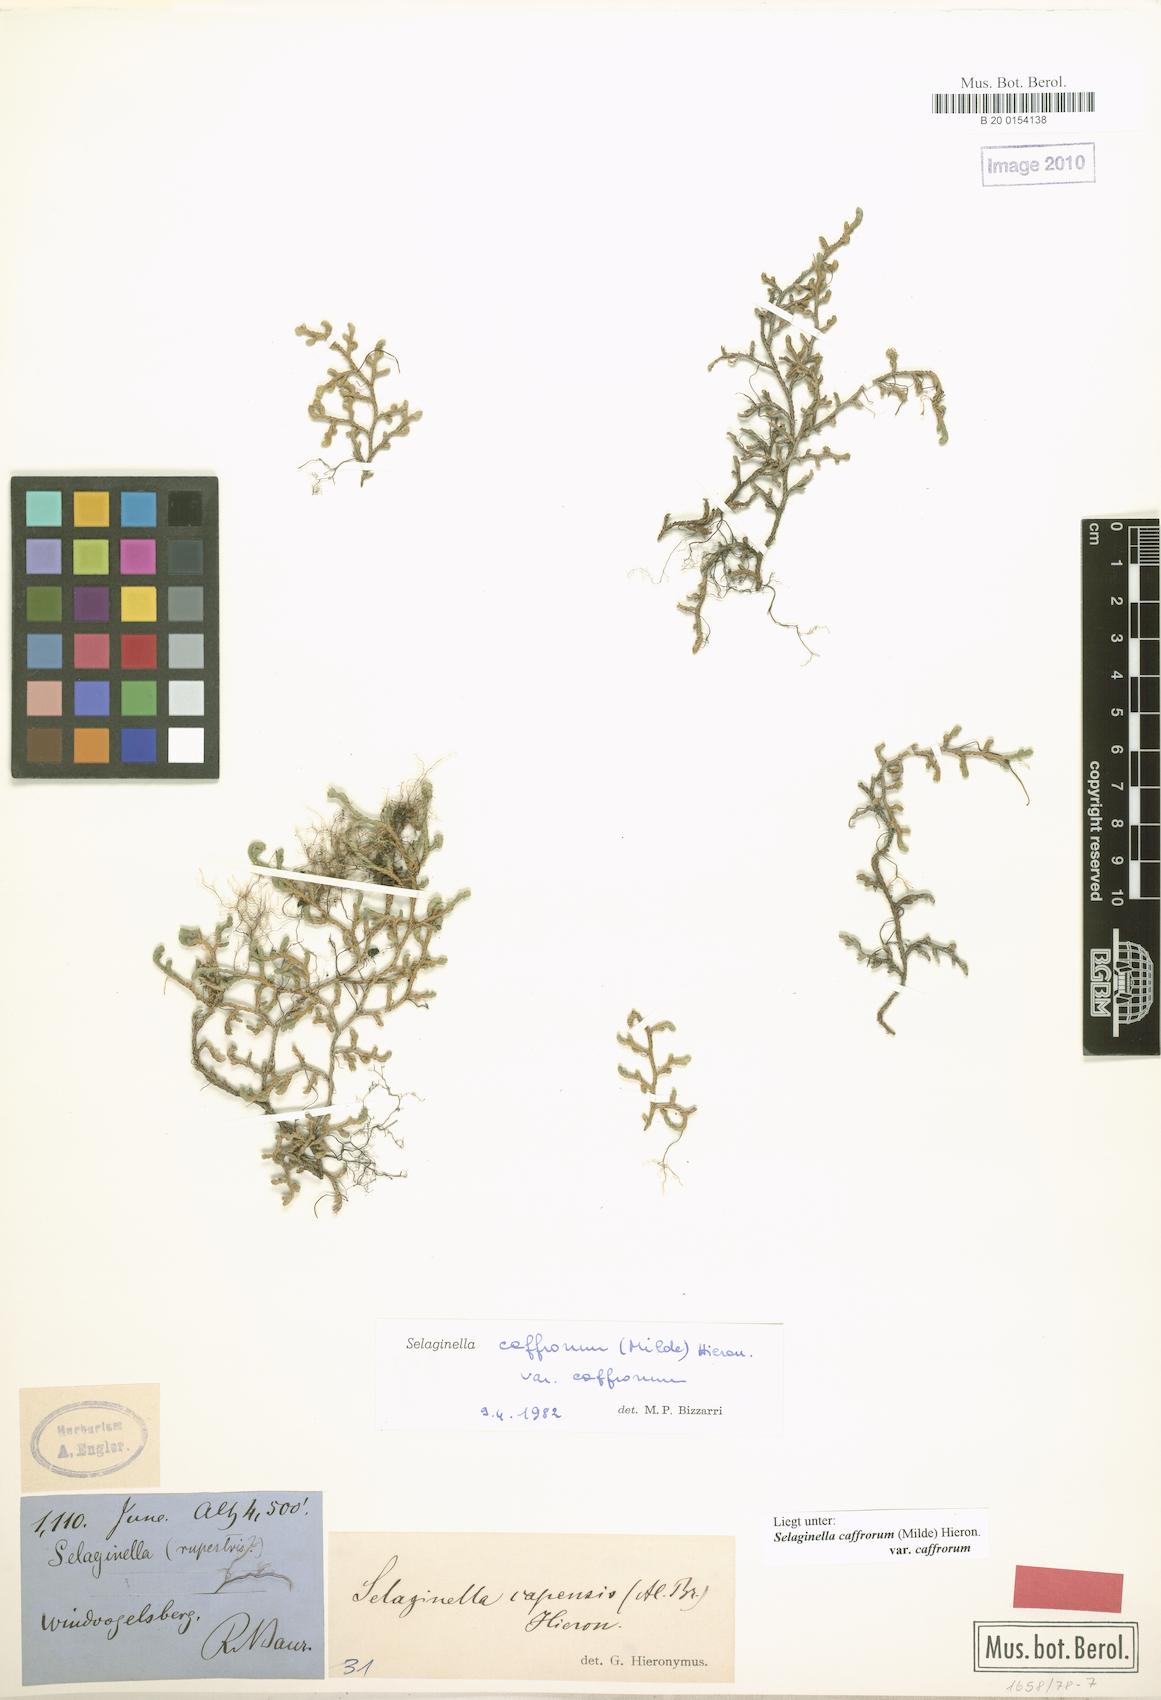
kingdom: Plantae
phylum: Tracheophyta
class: Lycopodiopsida
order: Selaginellales
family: Selaginellaceae
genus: Selaginella
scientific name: Selaginella caffrorum
